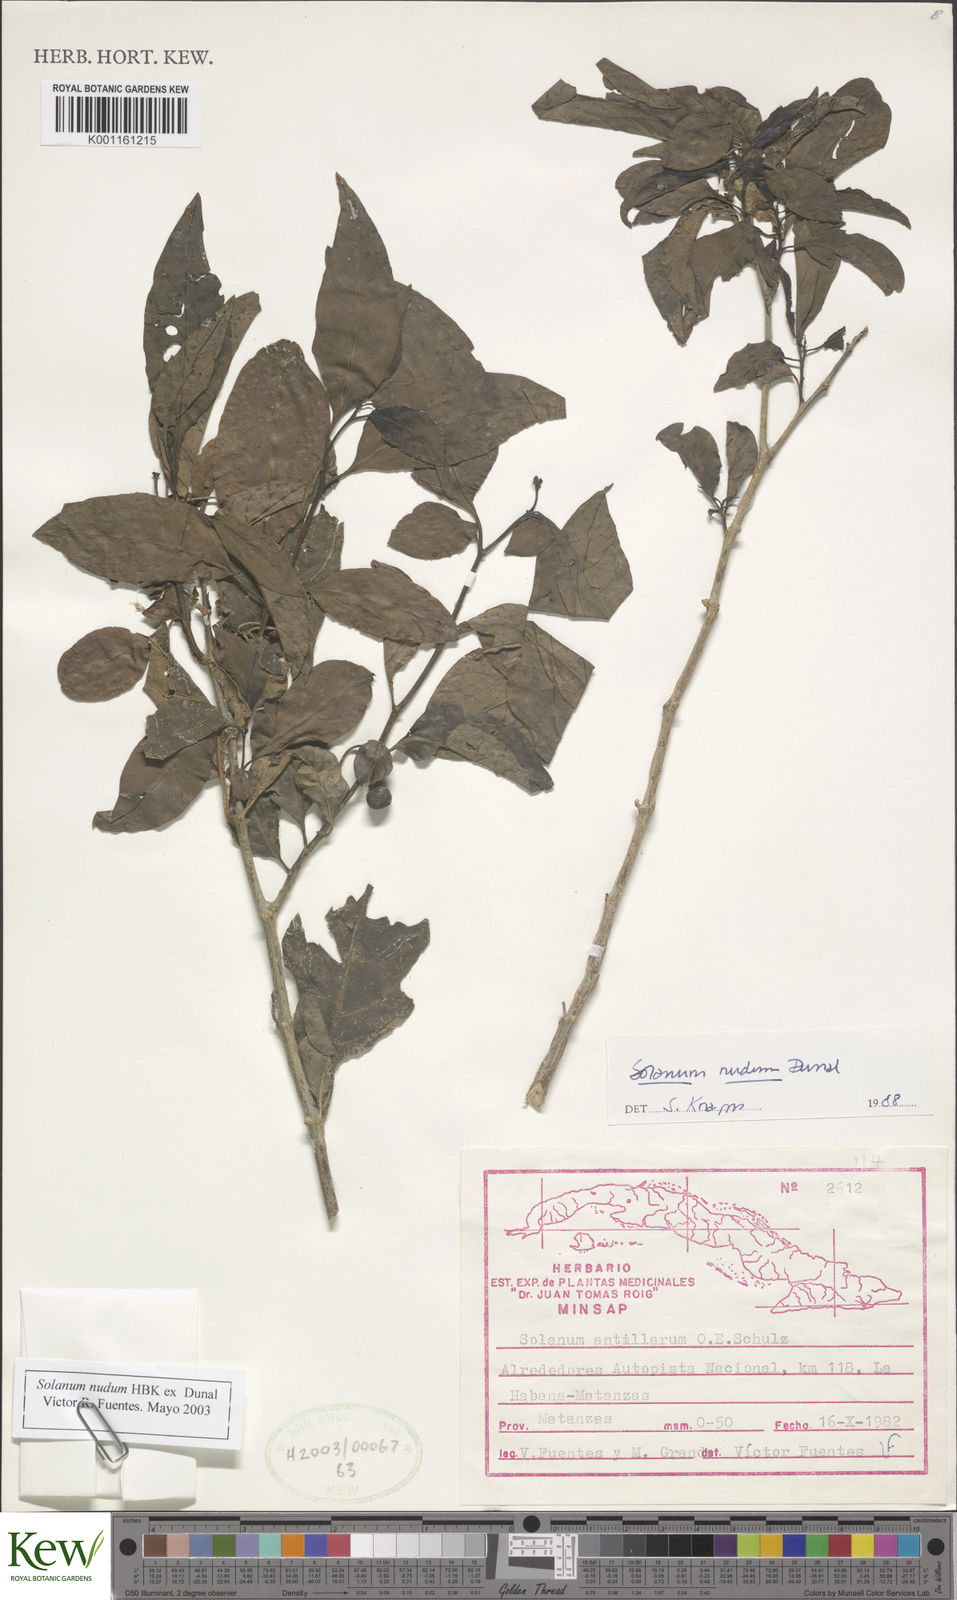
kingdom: Plantae
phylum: Tracheophyta
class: Magnoliopsida
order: Solanales
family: Solanaceae
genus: Solanum
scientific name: Solanum campechiense
